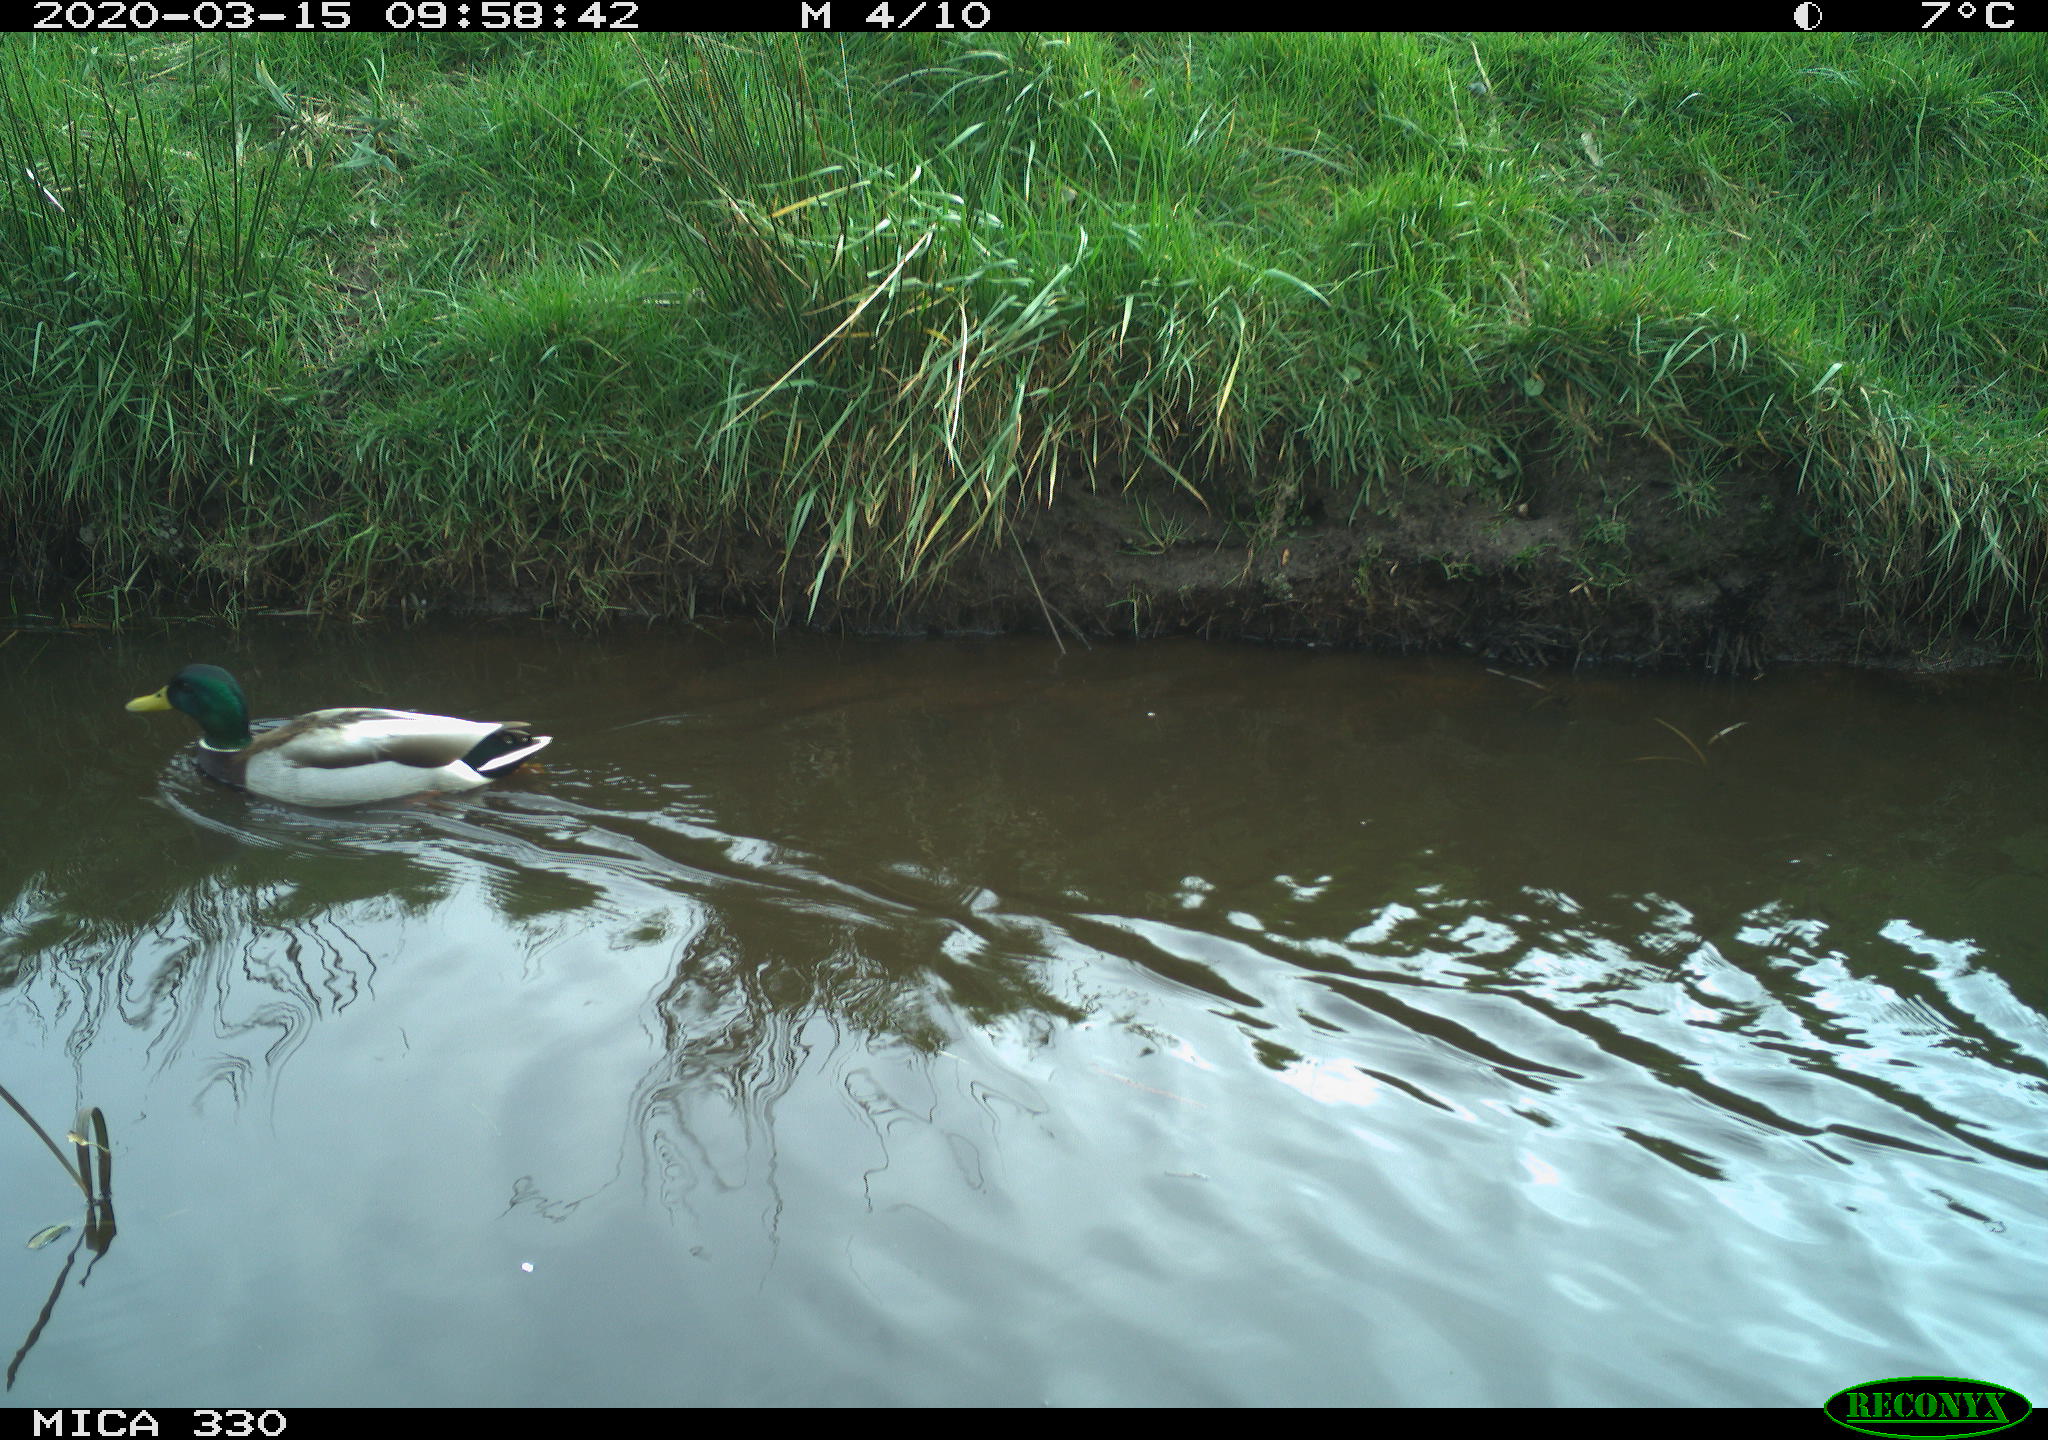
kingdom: Animalia
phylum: Chordata
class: Aves
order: Anseriformes
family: Anatidae
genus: Anas
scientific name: Anas platyrhynchos
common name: Mallard
